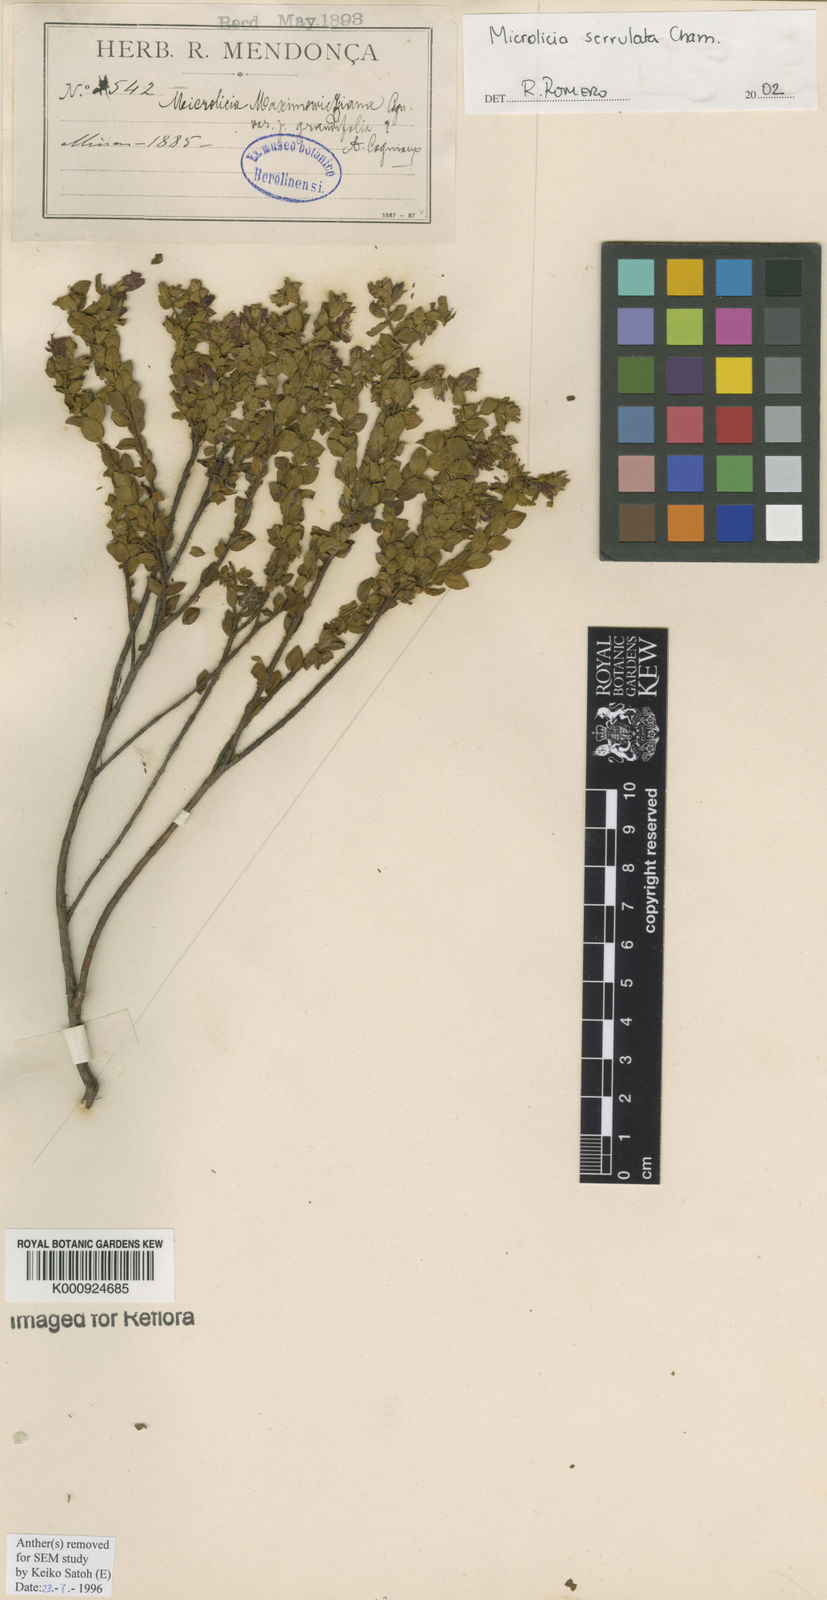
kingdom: Plantae
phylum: Tracheophyta
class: Magnoliopsida
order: Myrtales
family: Melastomataceae
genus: Microlicia
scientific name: Microlicia serrulata
